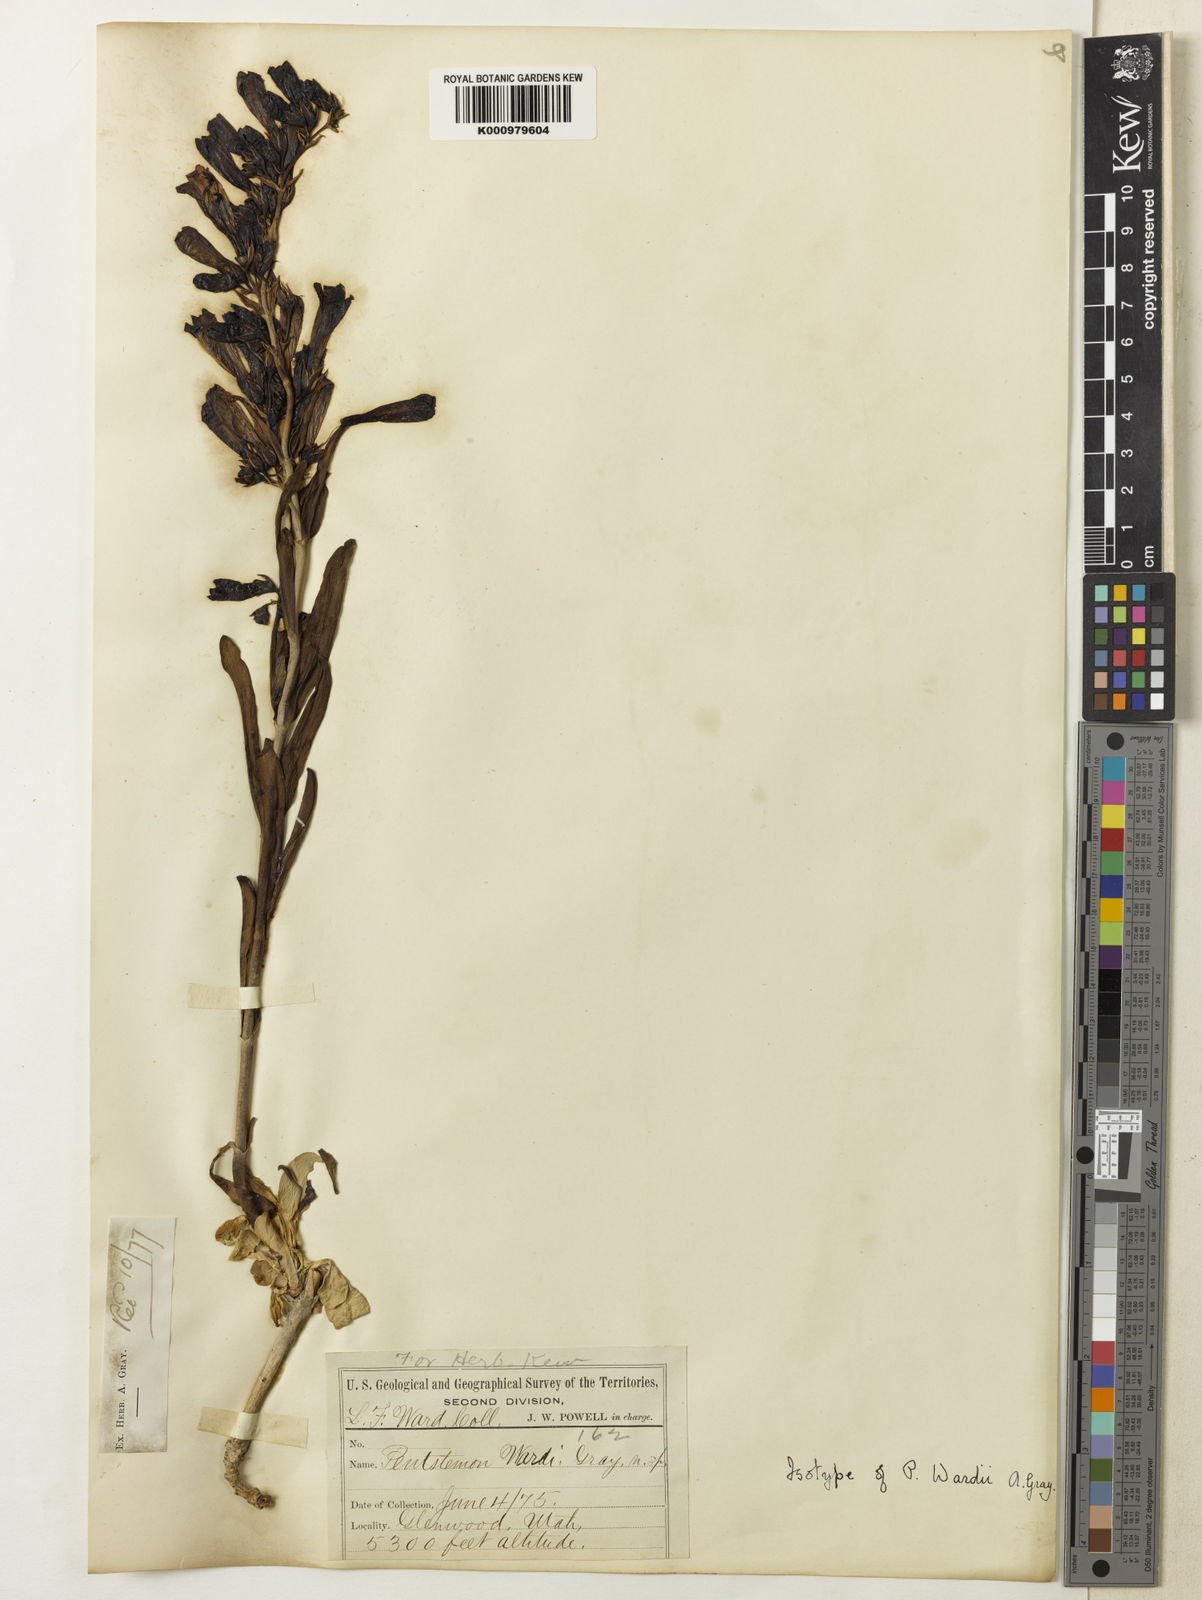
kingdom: Plantae
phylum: Tracheophyta
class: Magnoliopsida
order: Lamiales
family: Plantaginaceae
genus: Penstemon
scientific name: Penstemon
